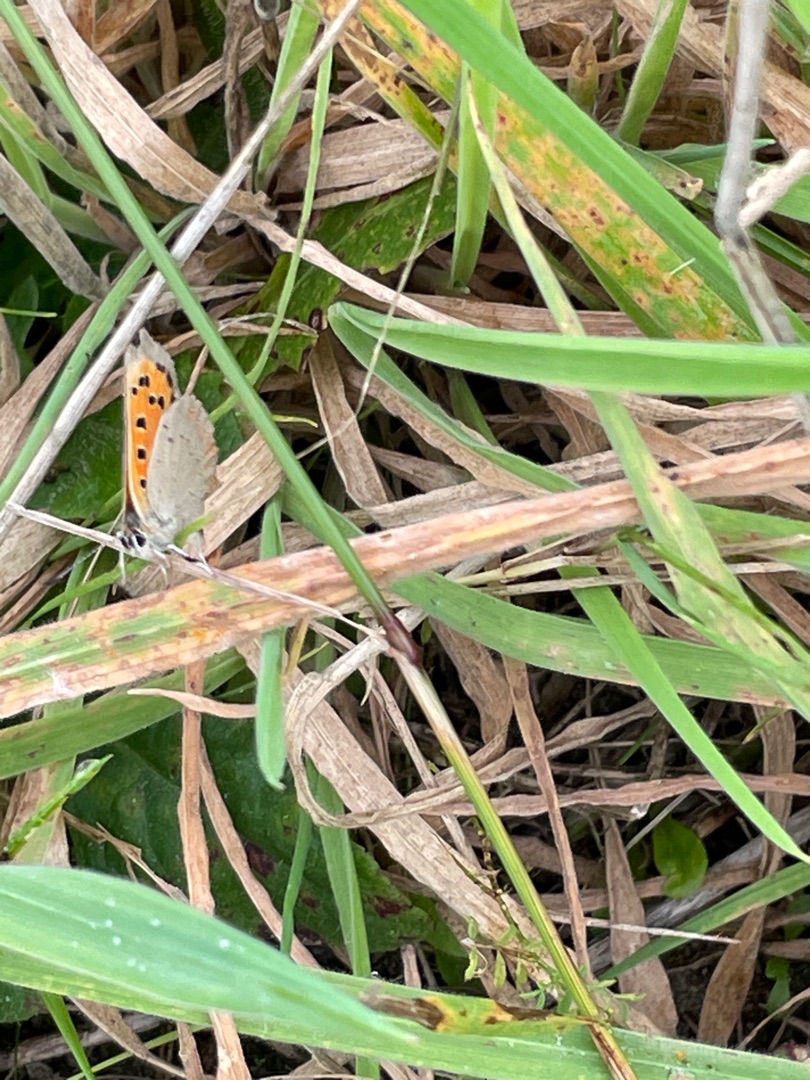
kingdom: Animalia
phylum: Arthropoda
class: Insecta
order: Lepidoptera
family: Lycaenidae
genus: Lycaena
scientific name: Lycaena phlaeas
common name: Lille ildfugl
